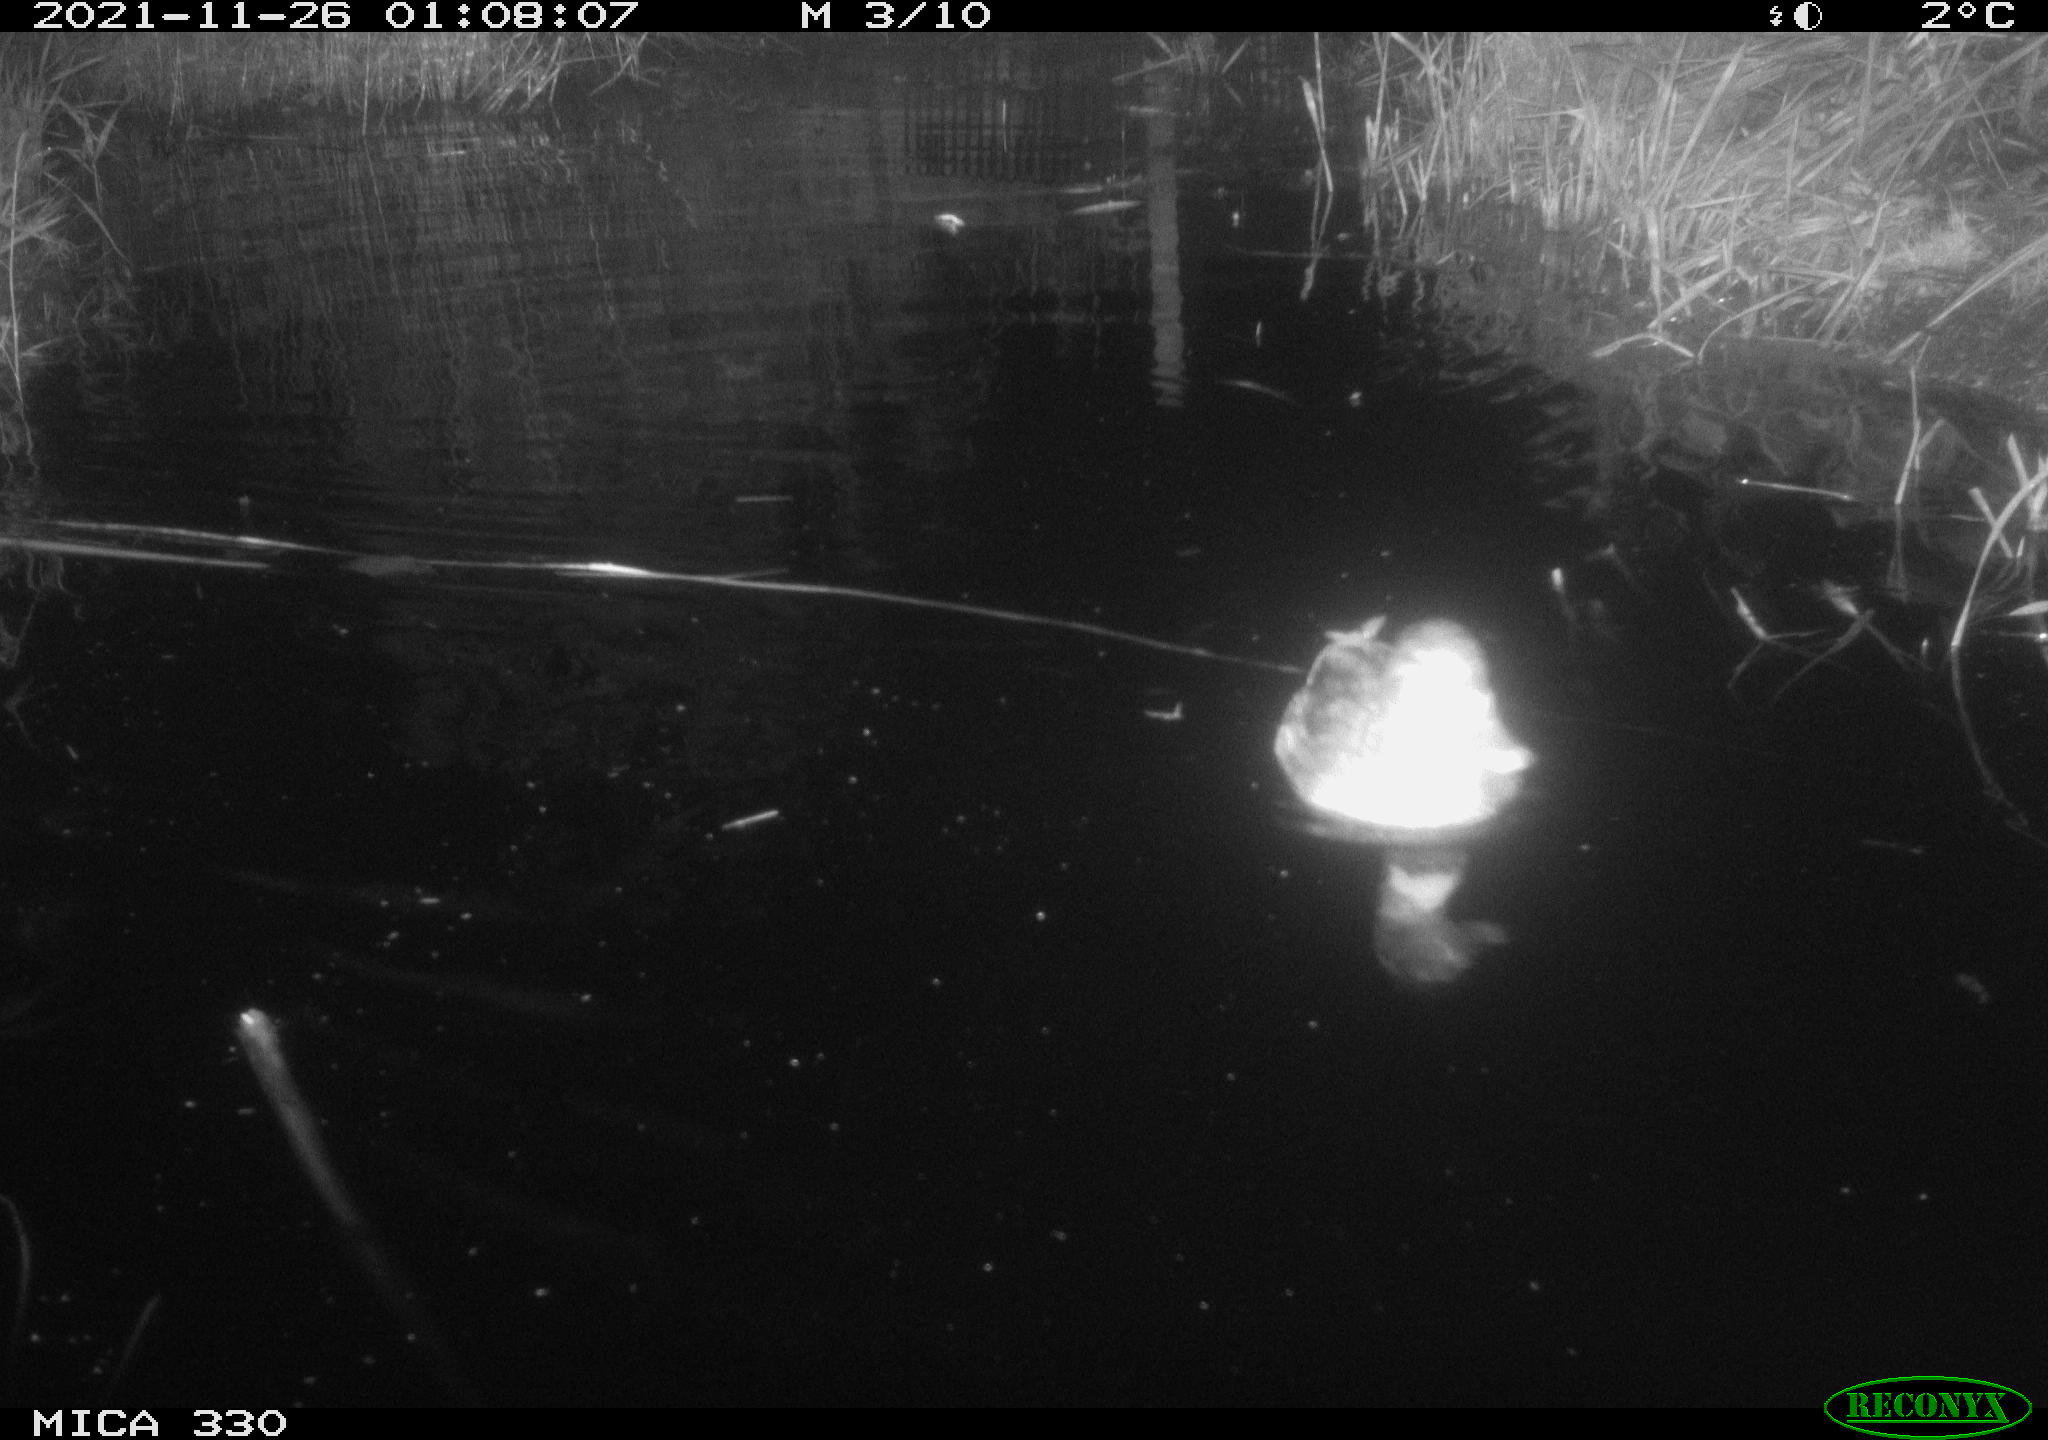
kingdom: Animalia
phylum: Chordata
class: Aves
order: Anseriformes
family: Anatidae
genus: Anas
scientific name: Anas platyrhynchos
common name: Mallard
